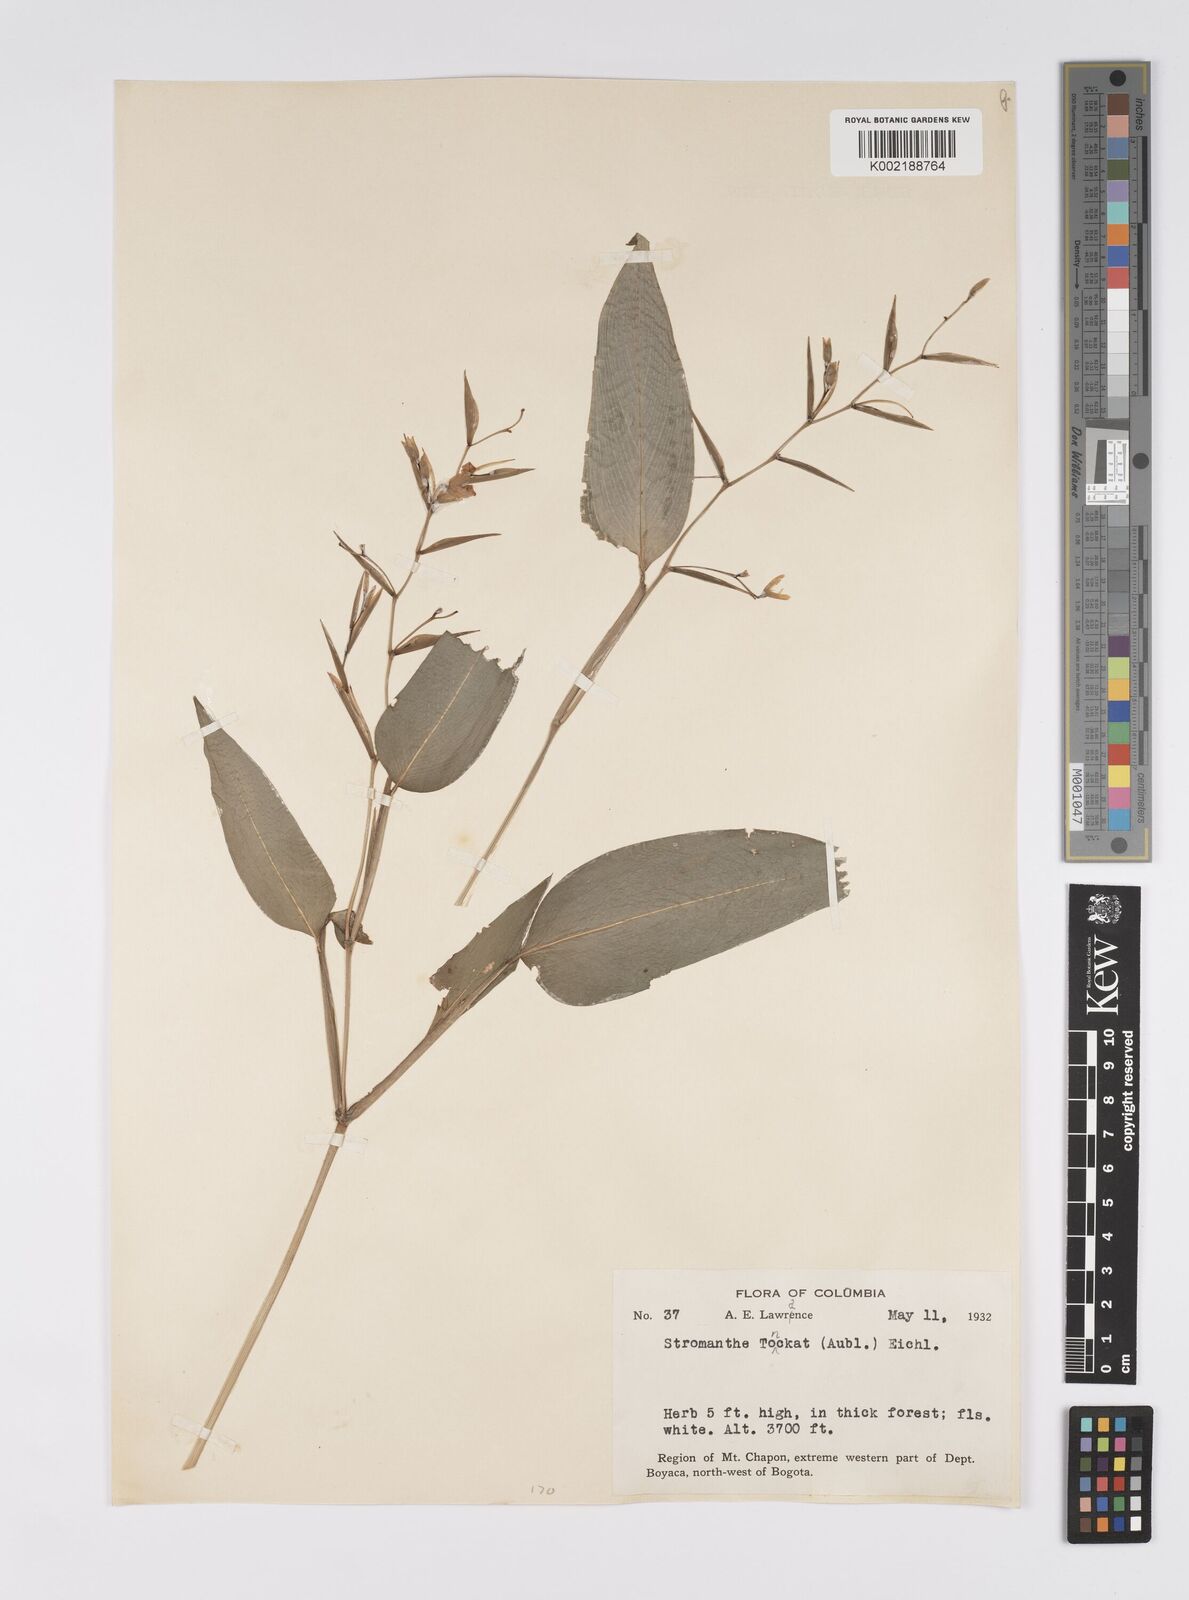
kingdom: Plantae
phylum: Tracheophyta
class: Liliopsida
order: Zingiberales
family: Marantaceae
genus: Stromanthe
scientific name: Stromanthe tonckat
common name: Stromanthe
